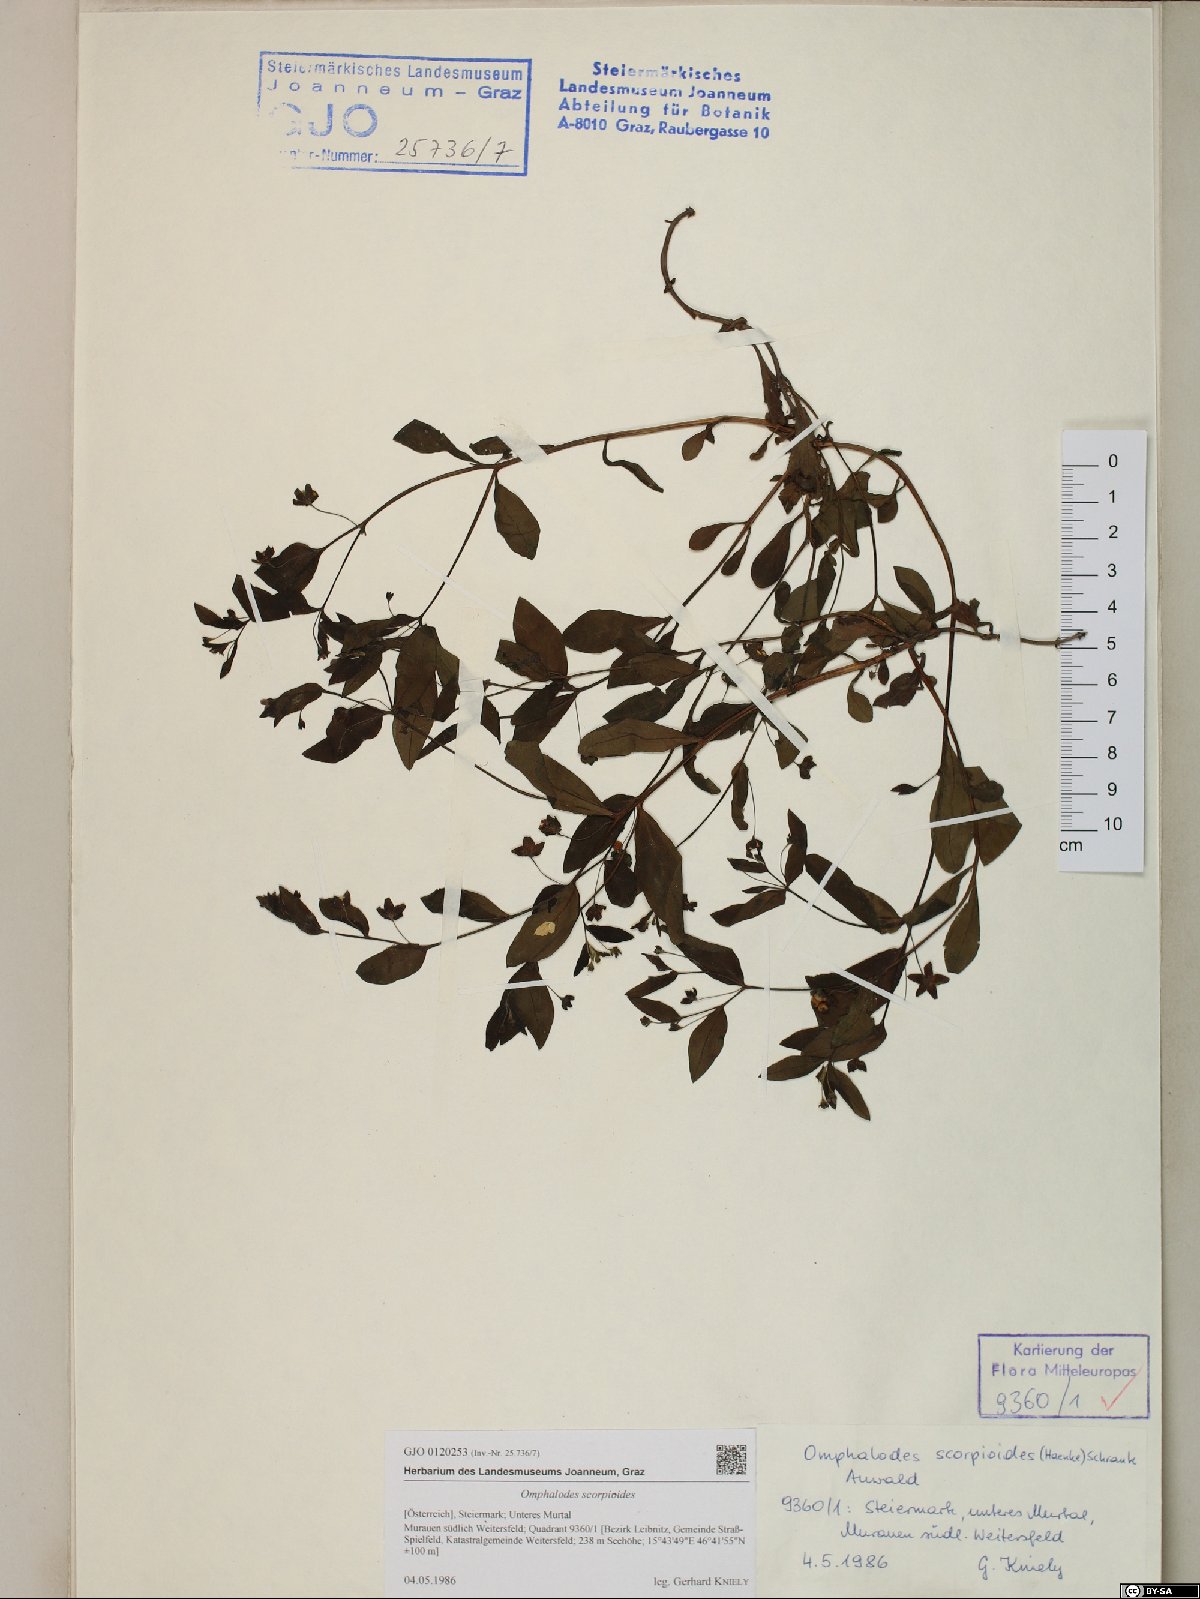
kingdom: Plantae
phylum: Tracheophyta
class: Magnoliopsida
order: Boraginales
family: Boraginaceae
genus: Memoremea
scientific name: Memoremea scorpioides
